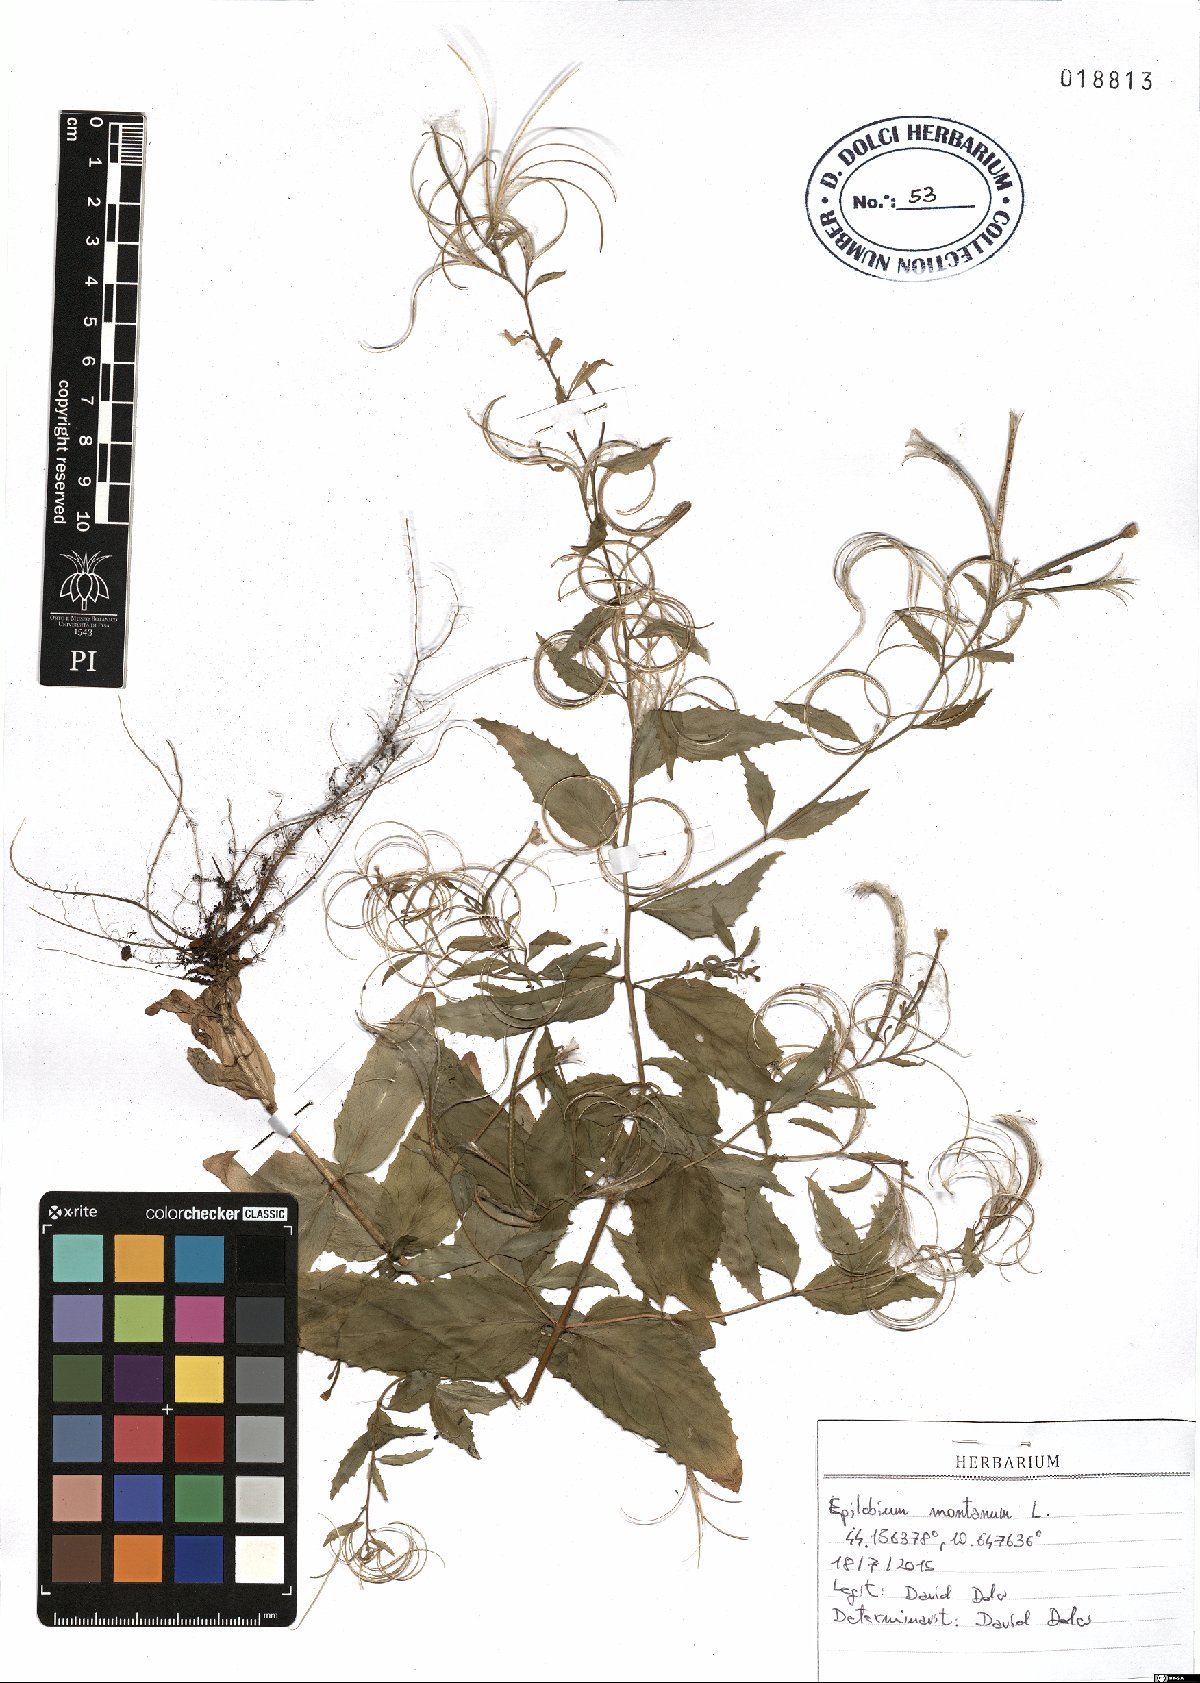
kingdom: Plantae
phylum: Tracheophyta
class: Magnoliopsida
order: Myrtales
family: Onagraceae
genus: Epilobium
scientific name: Epilobium montanum
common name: Broad-leaved willowherb
